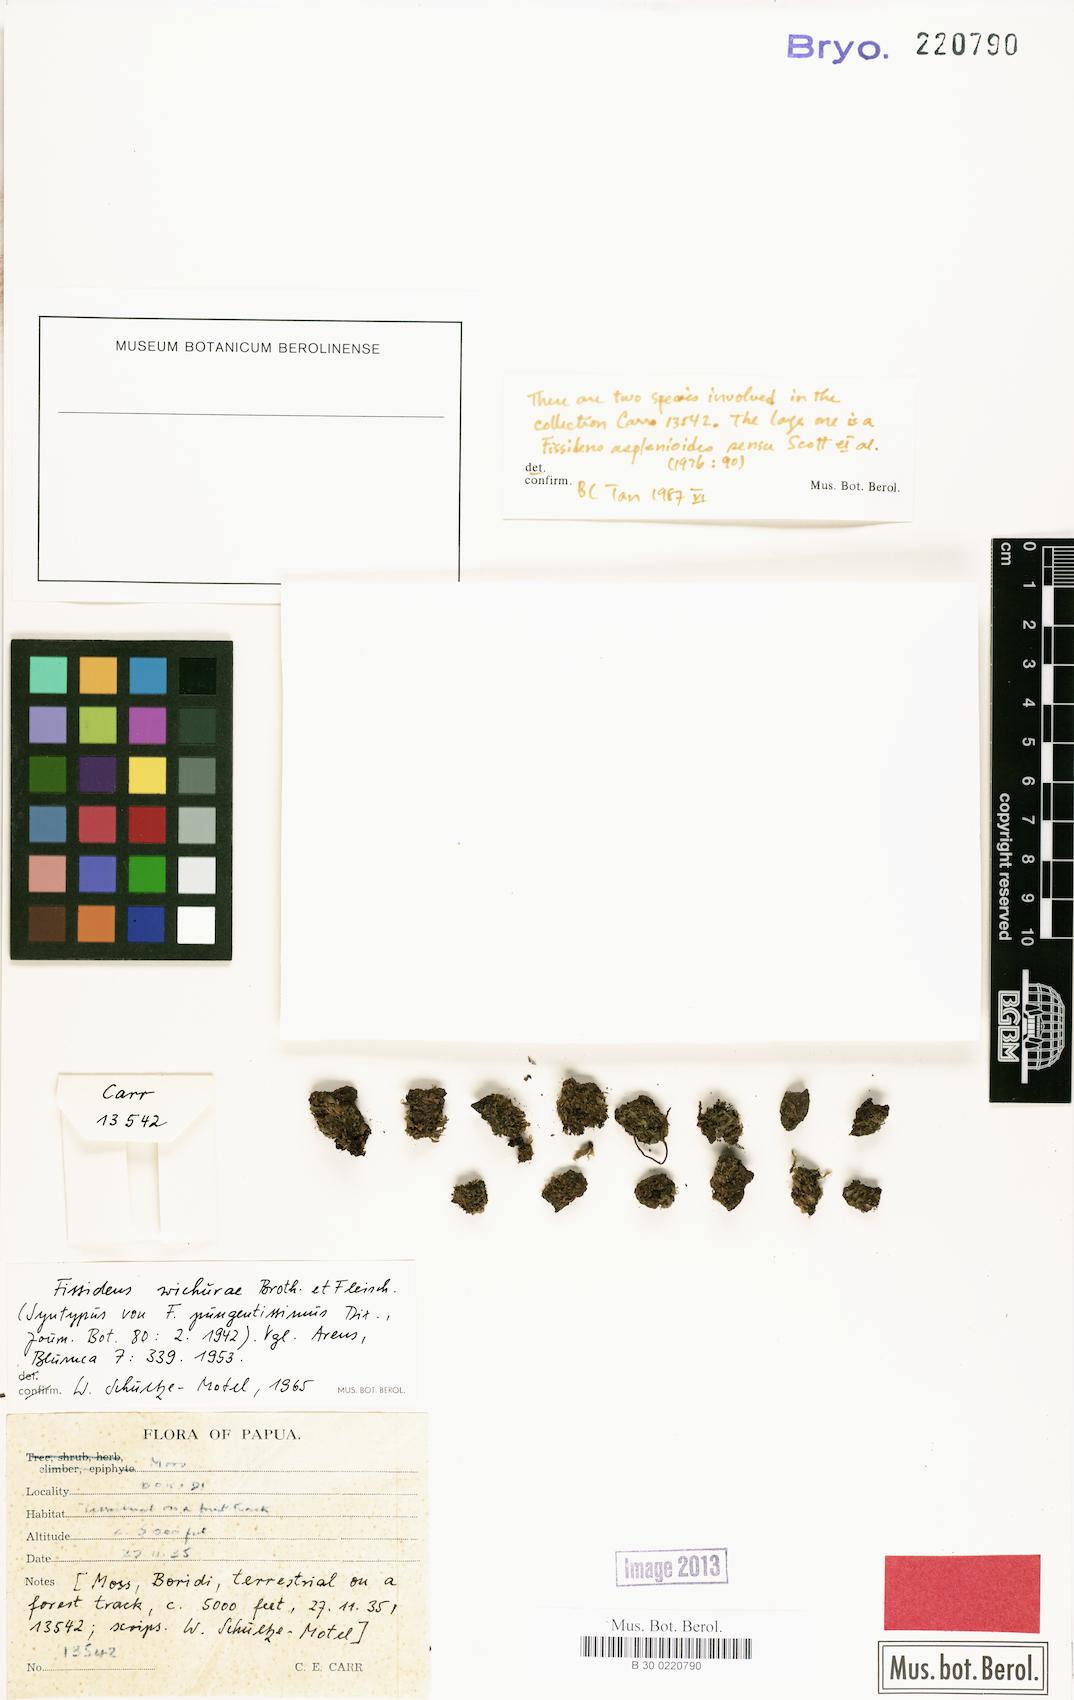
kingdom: Plantae
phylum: Bryophyta
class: Bryopsida
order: Dicranales
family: Fissidentaceae
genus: Fissidens
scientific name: Fissidens wichurae
